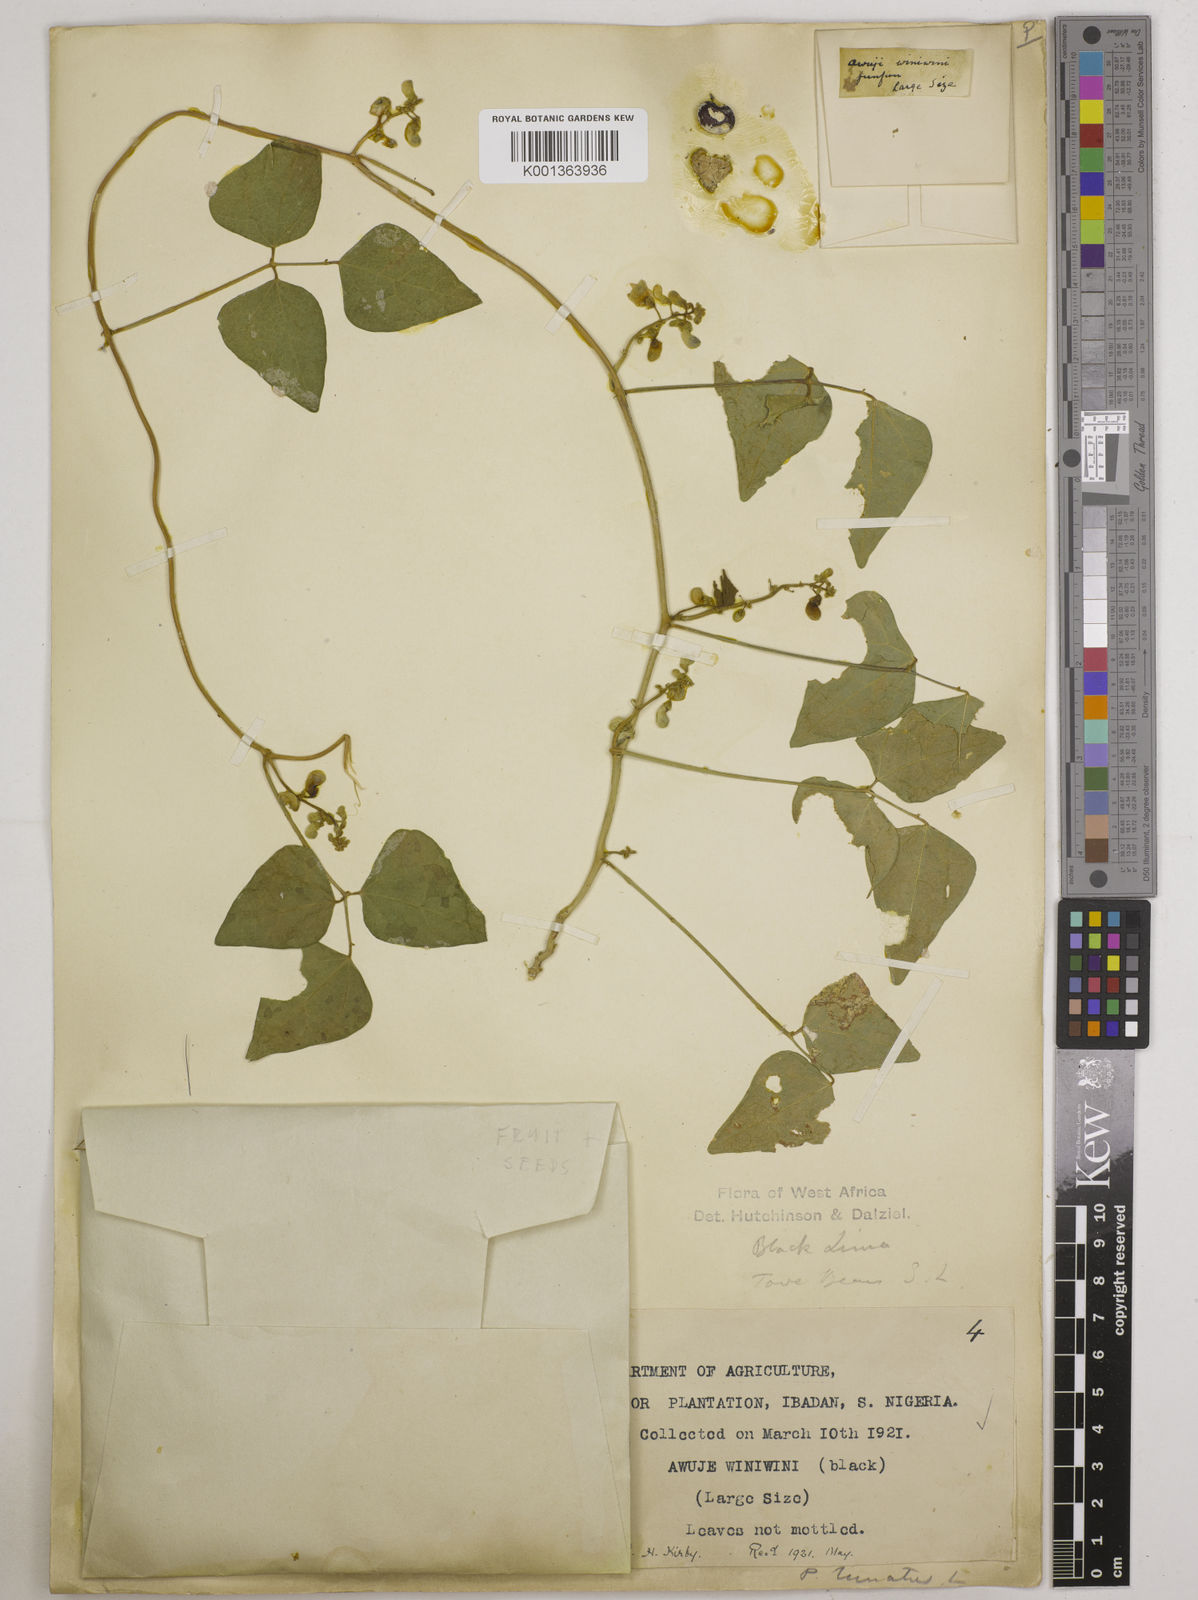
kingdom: Plantae
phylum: Tracheophyta
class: Magnoliopsida
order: Fabales
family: Fabaceae
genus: Phaseolus
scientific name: Phaseolus lunatus
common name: Sieva bean
